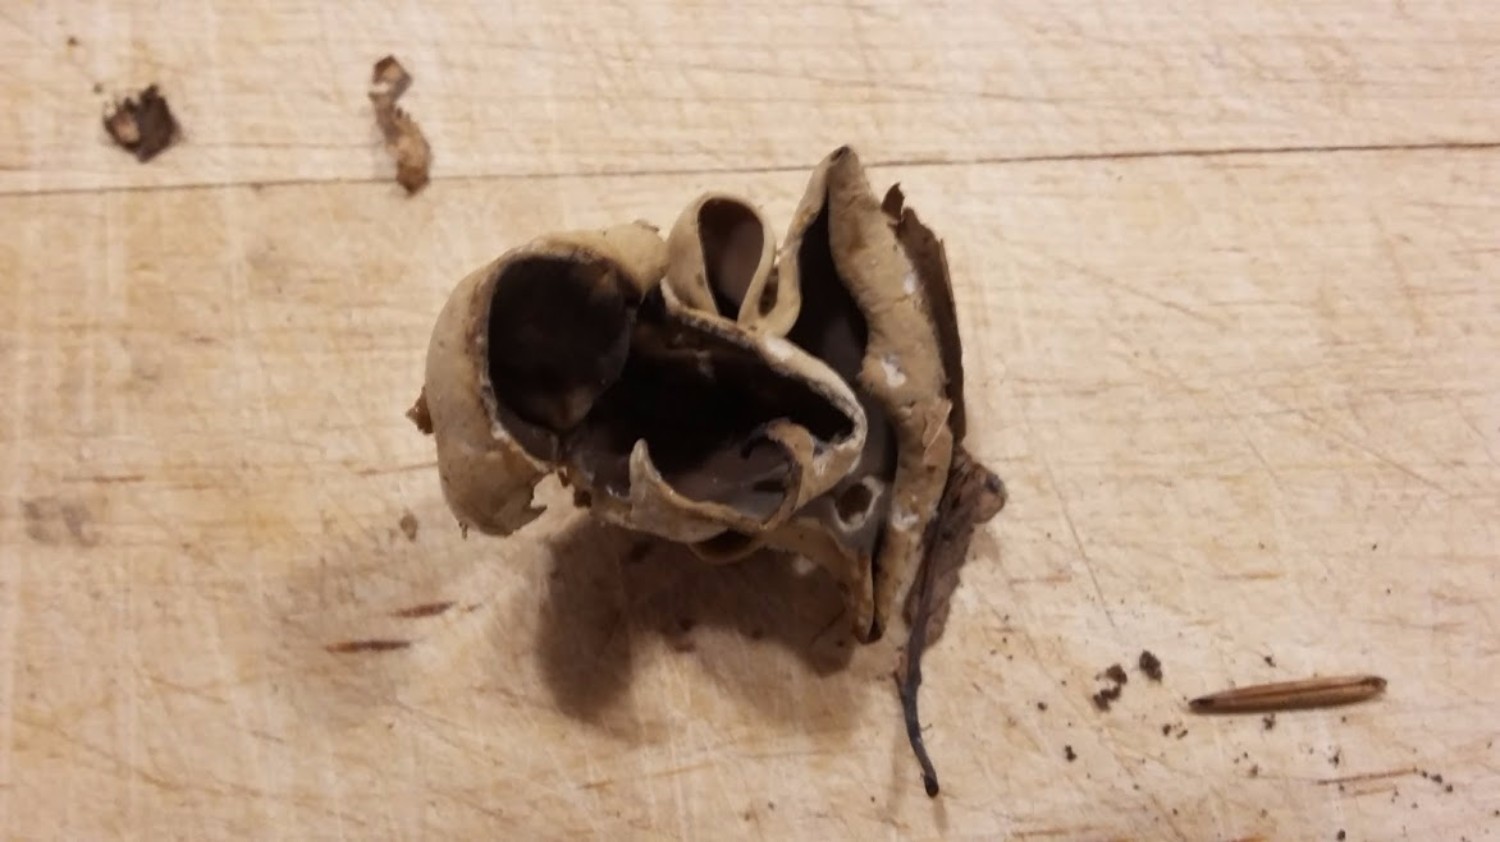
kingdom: Fungi
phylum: Ascomycota
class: Pezizomycetes
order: Pezizales
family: Otideaceae
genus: Otidea
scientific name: Otidea
